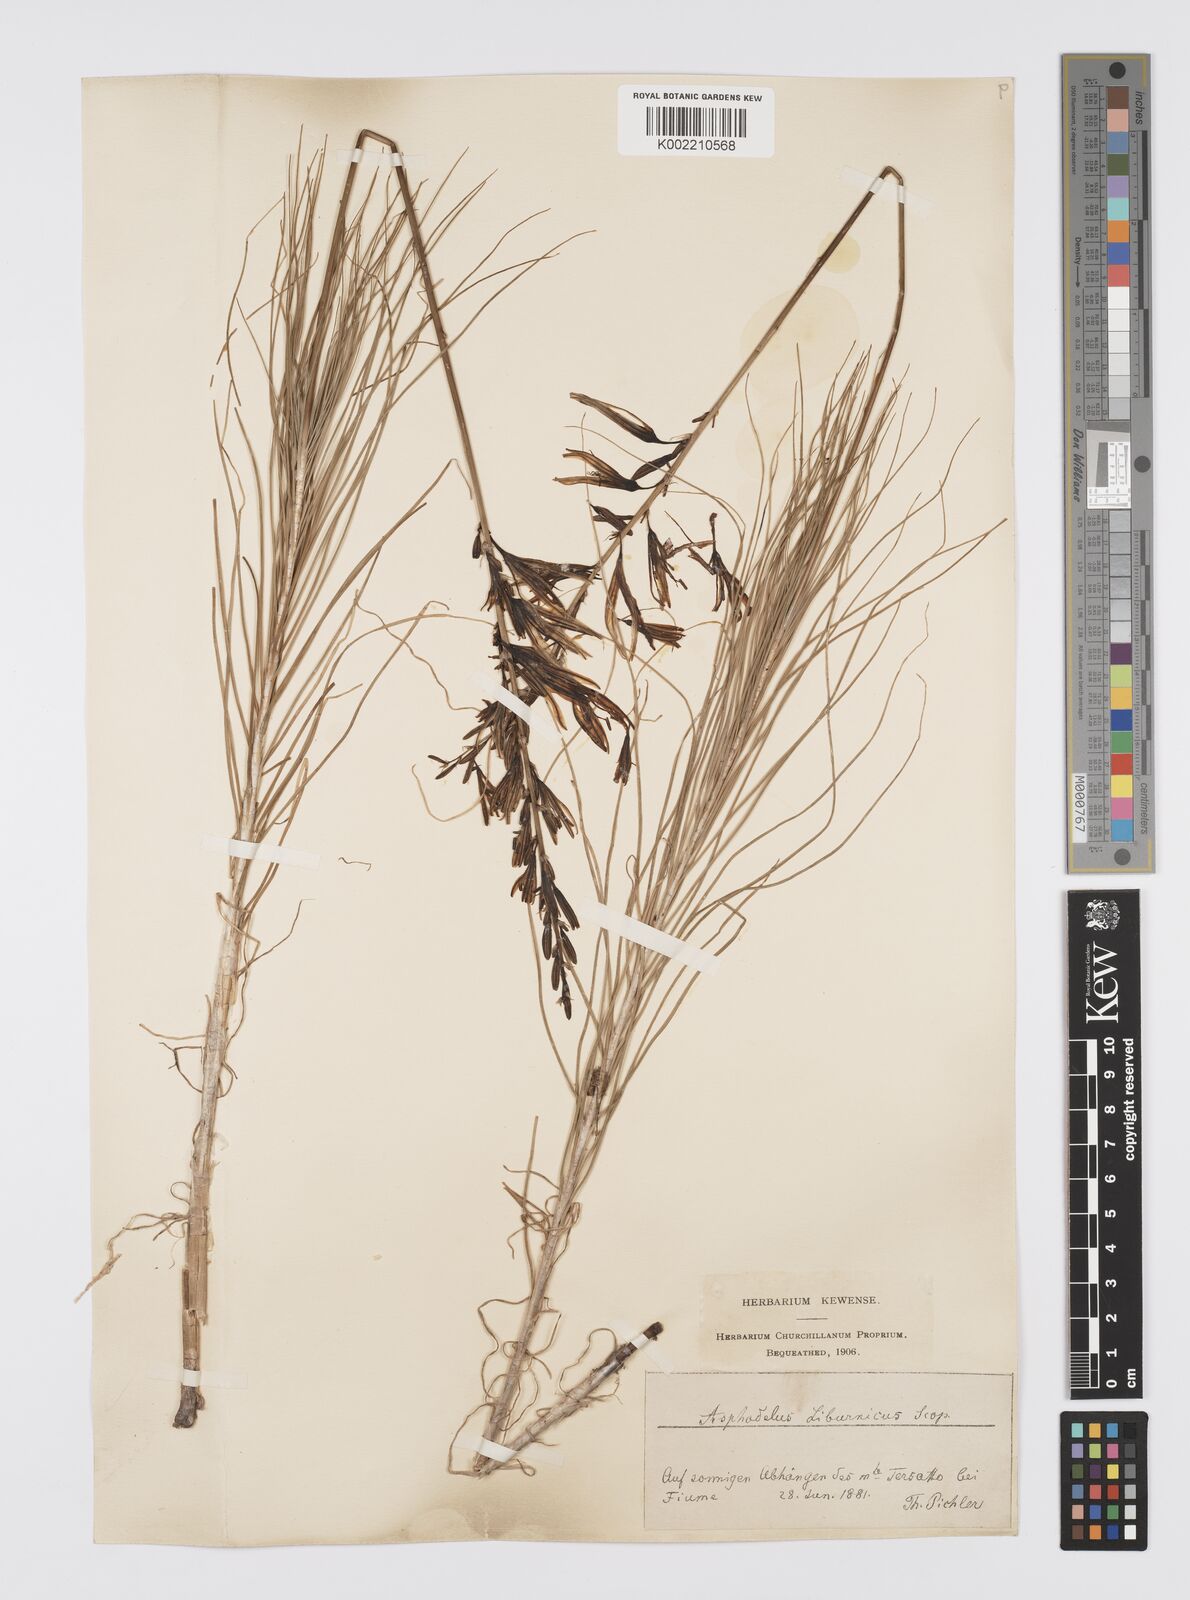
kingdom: Plantae
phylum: Tracheophyta
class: Liliopsida
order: Asparagales
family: Asphodelaceae
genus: Asphodeline
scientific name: Asphodeline liburnica
